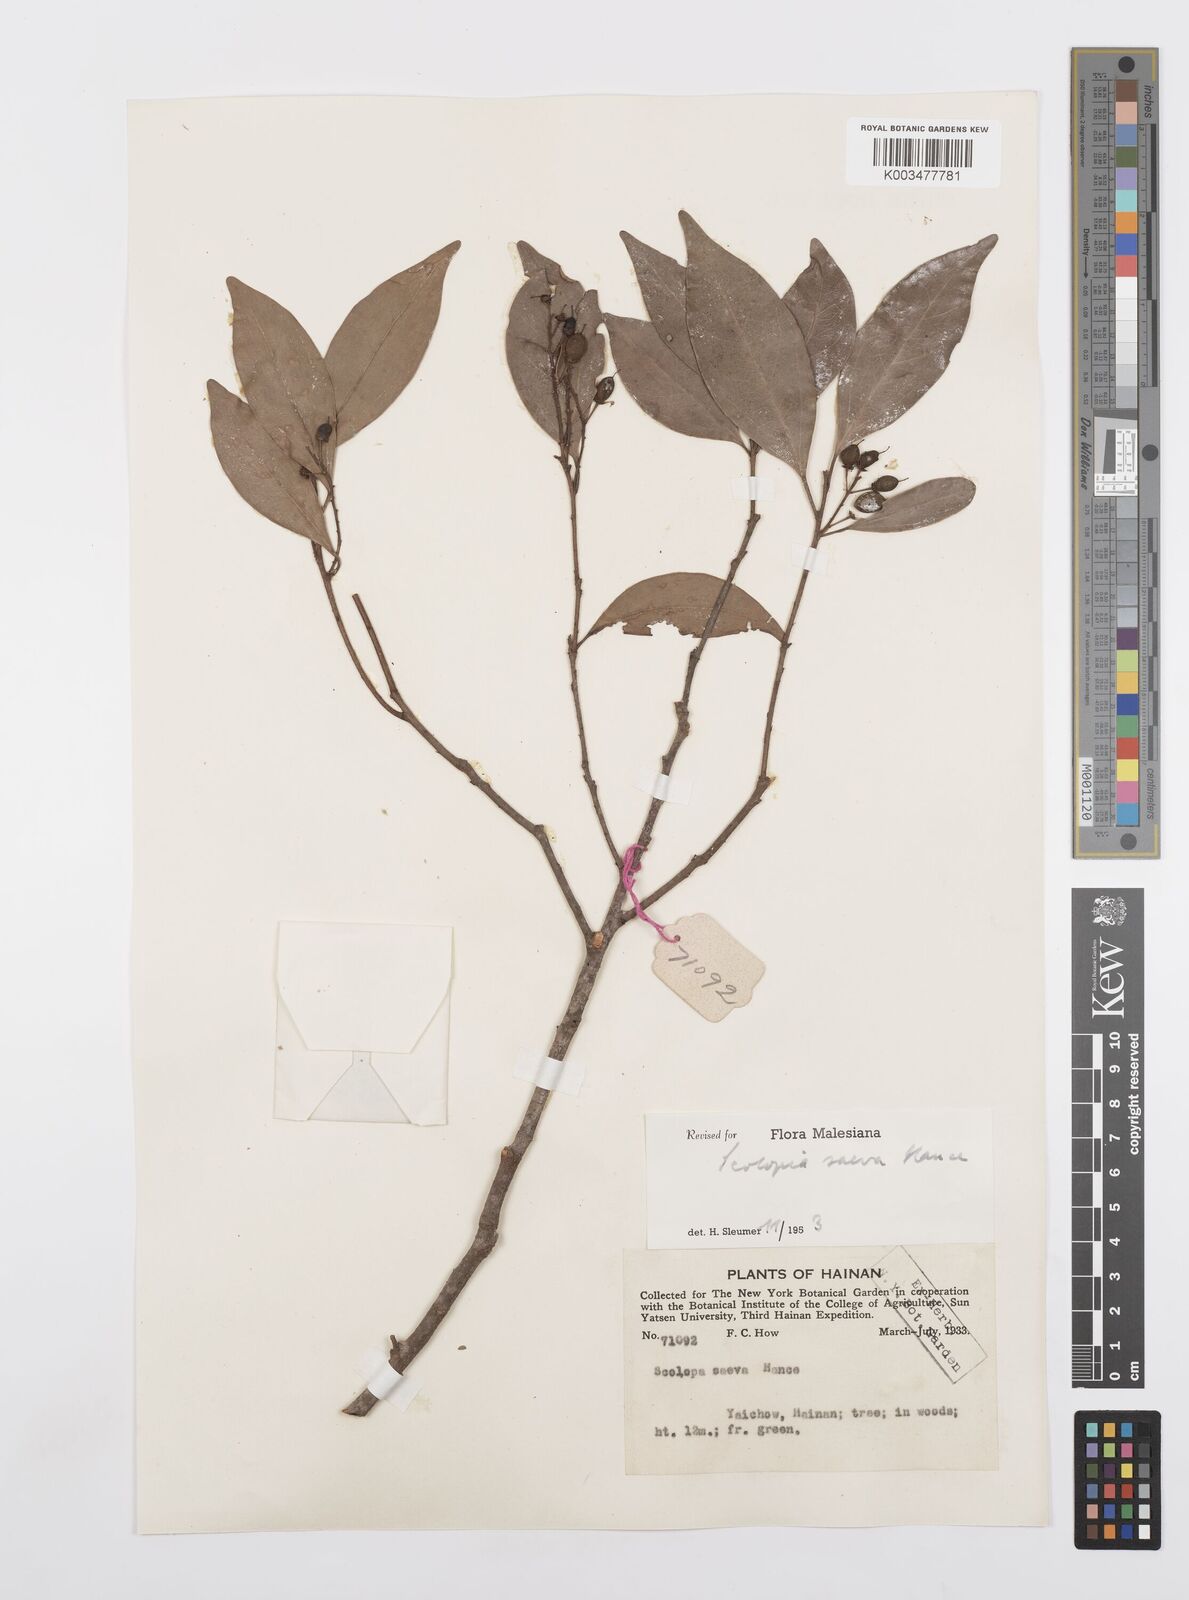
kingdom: Plantae
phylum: Tracheophyta
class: Magnoliopsida
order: Malpighiales
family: Salicaceae
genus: Scolopia
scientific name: Scolopia saeva
